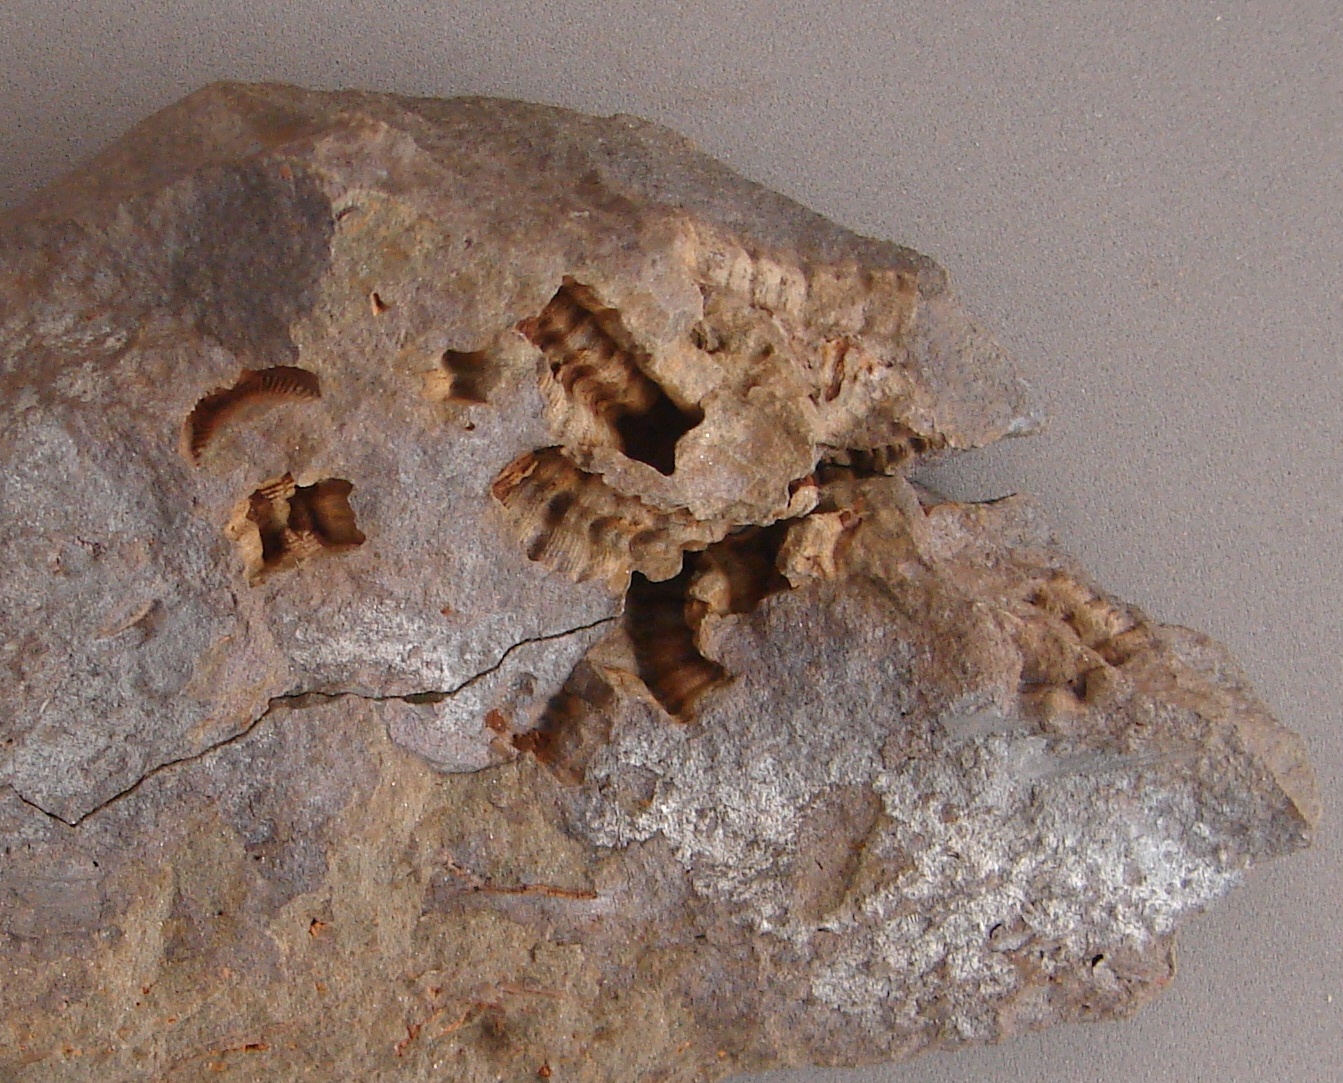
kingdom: Animalia
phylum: Echinodermata
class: Crinoidea
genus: Diamenocrinus
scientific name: Diamenocrinus
